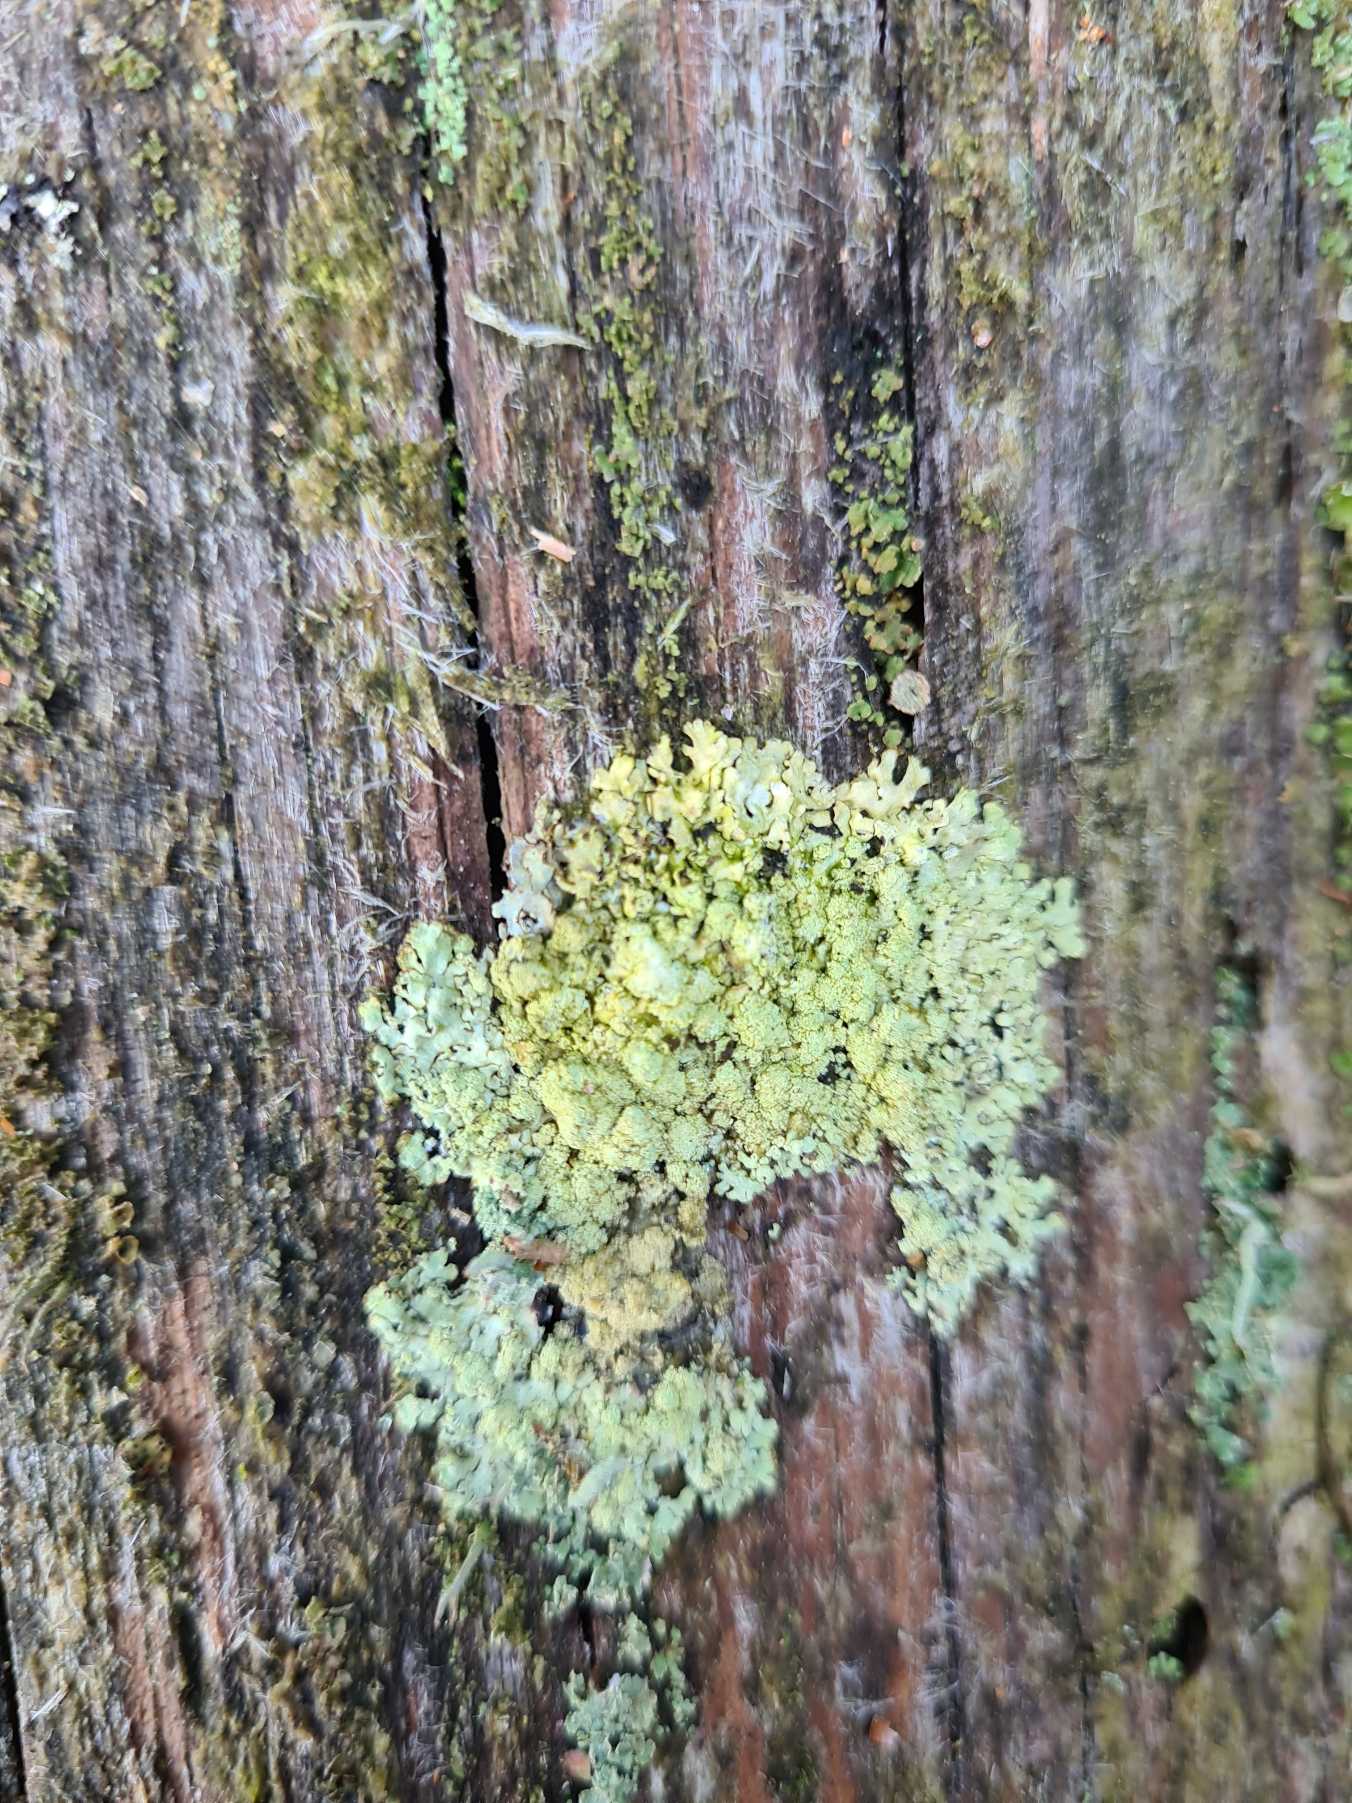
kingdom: Fungi
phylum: Ascomycota
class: Lecanoromycetes
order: Lecanorales
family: Parmeliaceae
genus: Parmeliopsis
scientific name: Parmeliopsis ambigua
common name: Gul stolpelav
